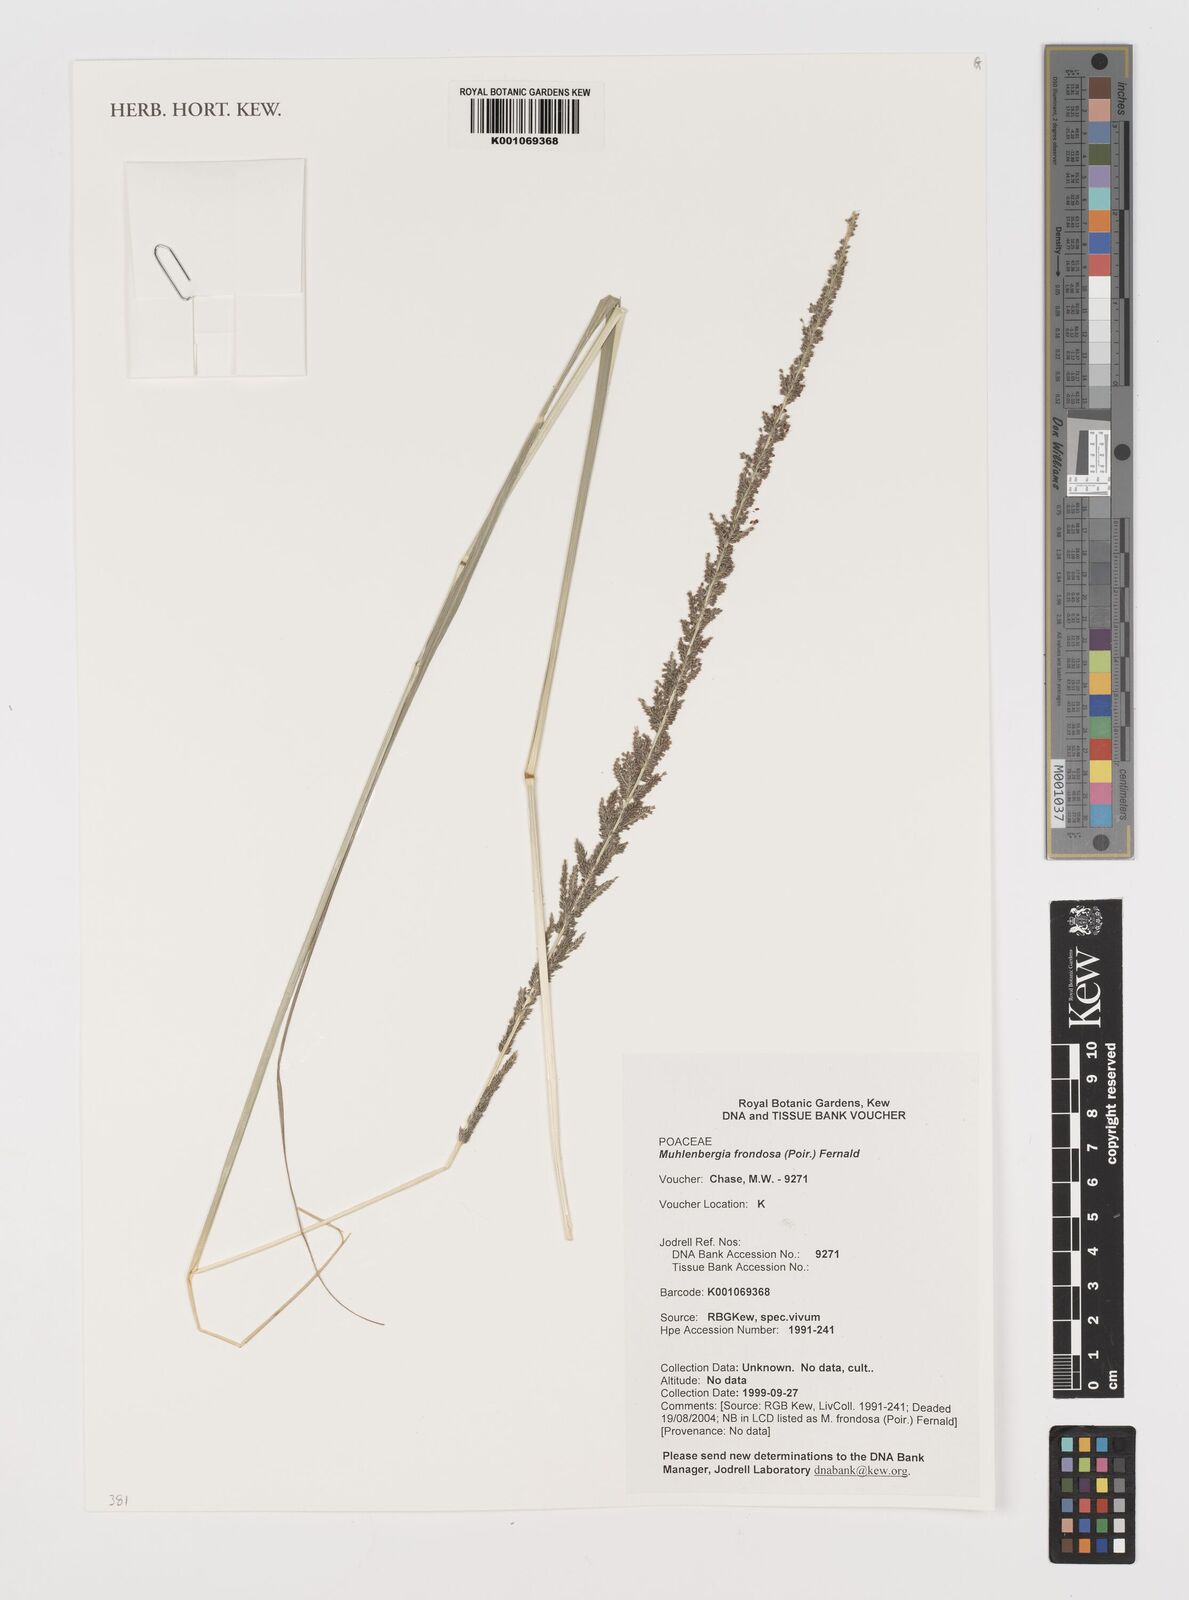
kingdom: Plantae
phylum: Tracheophyta
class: Liliopsida
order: Poales
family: Poaceae
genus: Muhlenbergia
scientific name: Muhlenbergia frondosa
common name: Common satingrass
